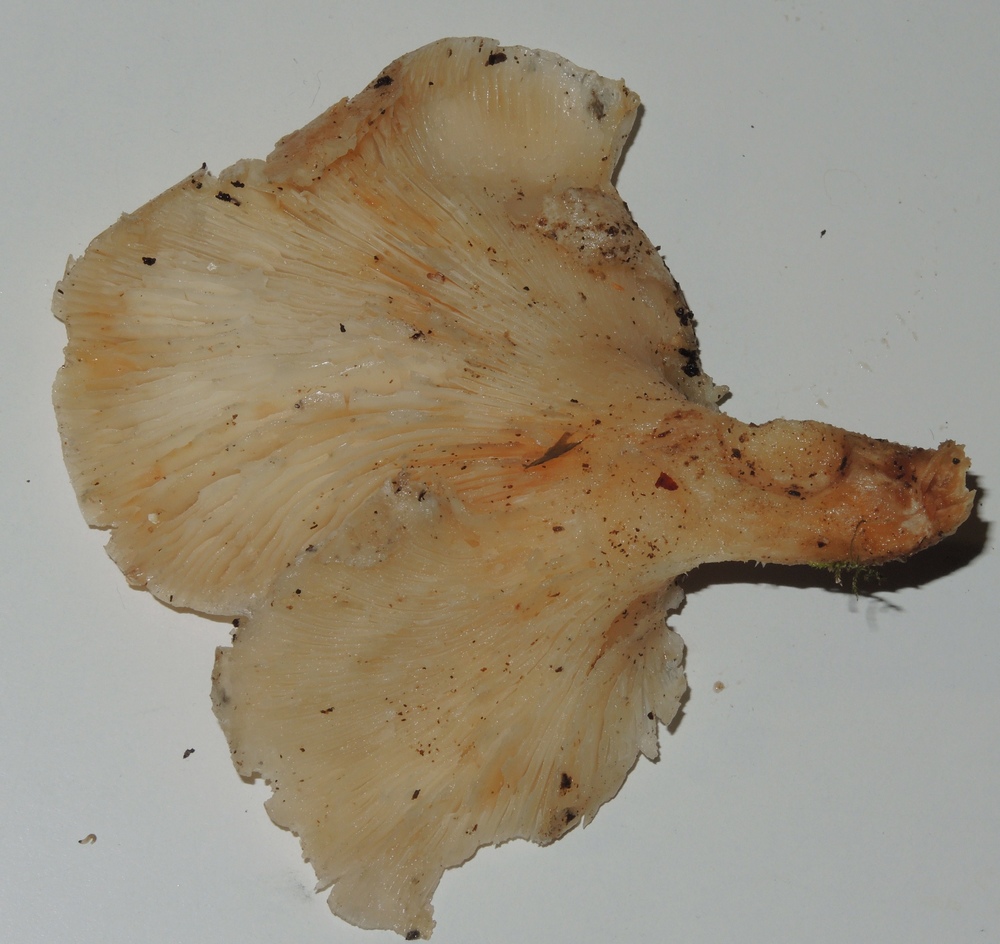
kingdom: Fungi
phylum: Basidiomycota
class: Agaricomycetes
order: Agaricales
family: Pleurotaceae
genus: Pleurotus
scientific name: Pleurotus dryinus
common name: korkagtig østershat
